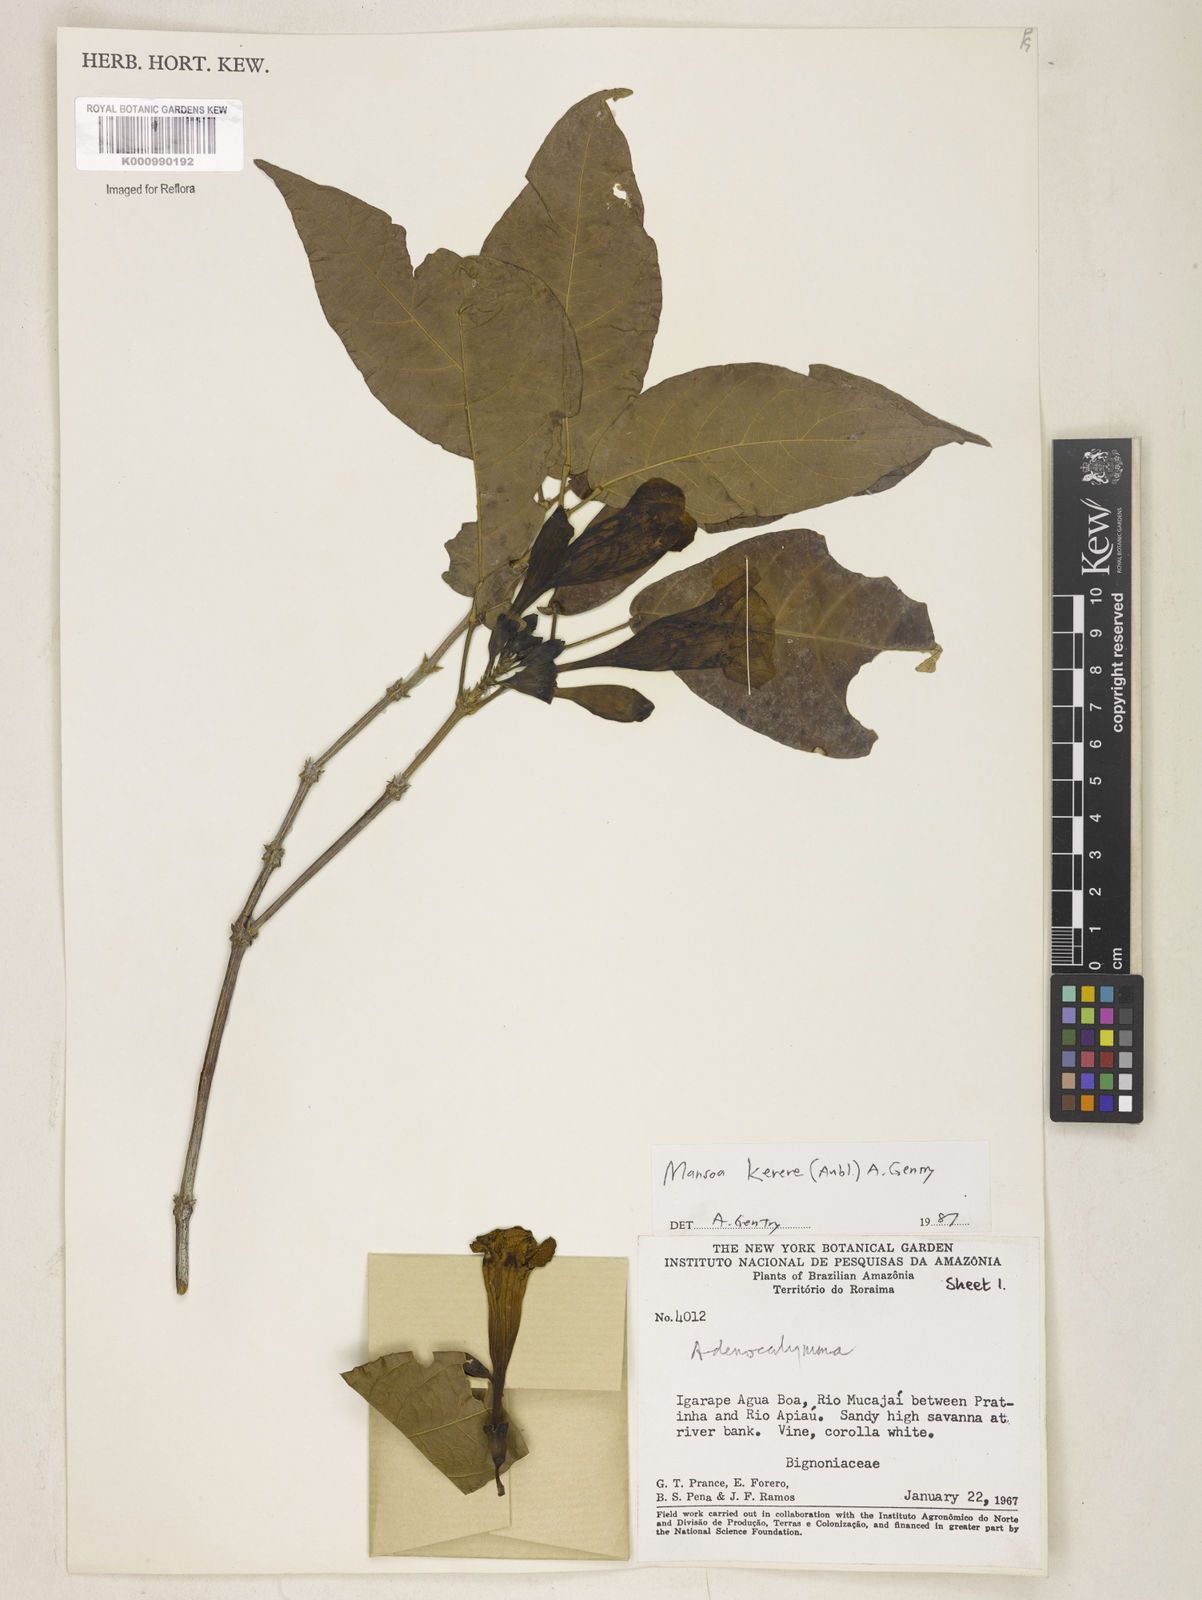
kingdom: Plantae
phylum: Tracheophyta
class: Magnoliopsida
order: Lamiales
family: Bignoniaceae
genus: Pachyptera
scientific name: Pachyptera kerere
